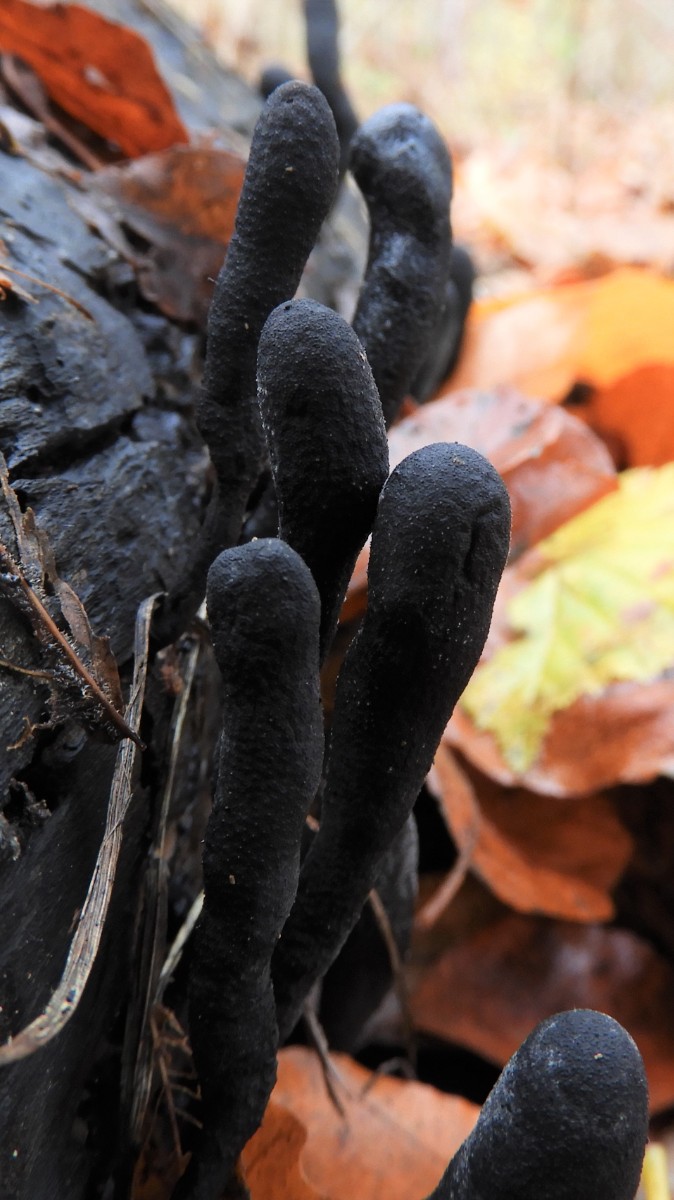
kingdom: Fungi
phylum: Ascomycota
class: Sordariomycetes
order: Xylariales
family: Xylariaceae
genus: Xylaria
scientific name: Xylaria longipes
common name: slank stødsvamp
